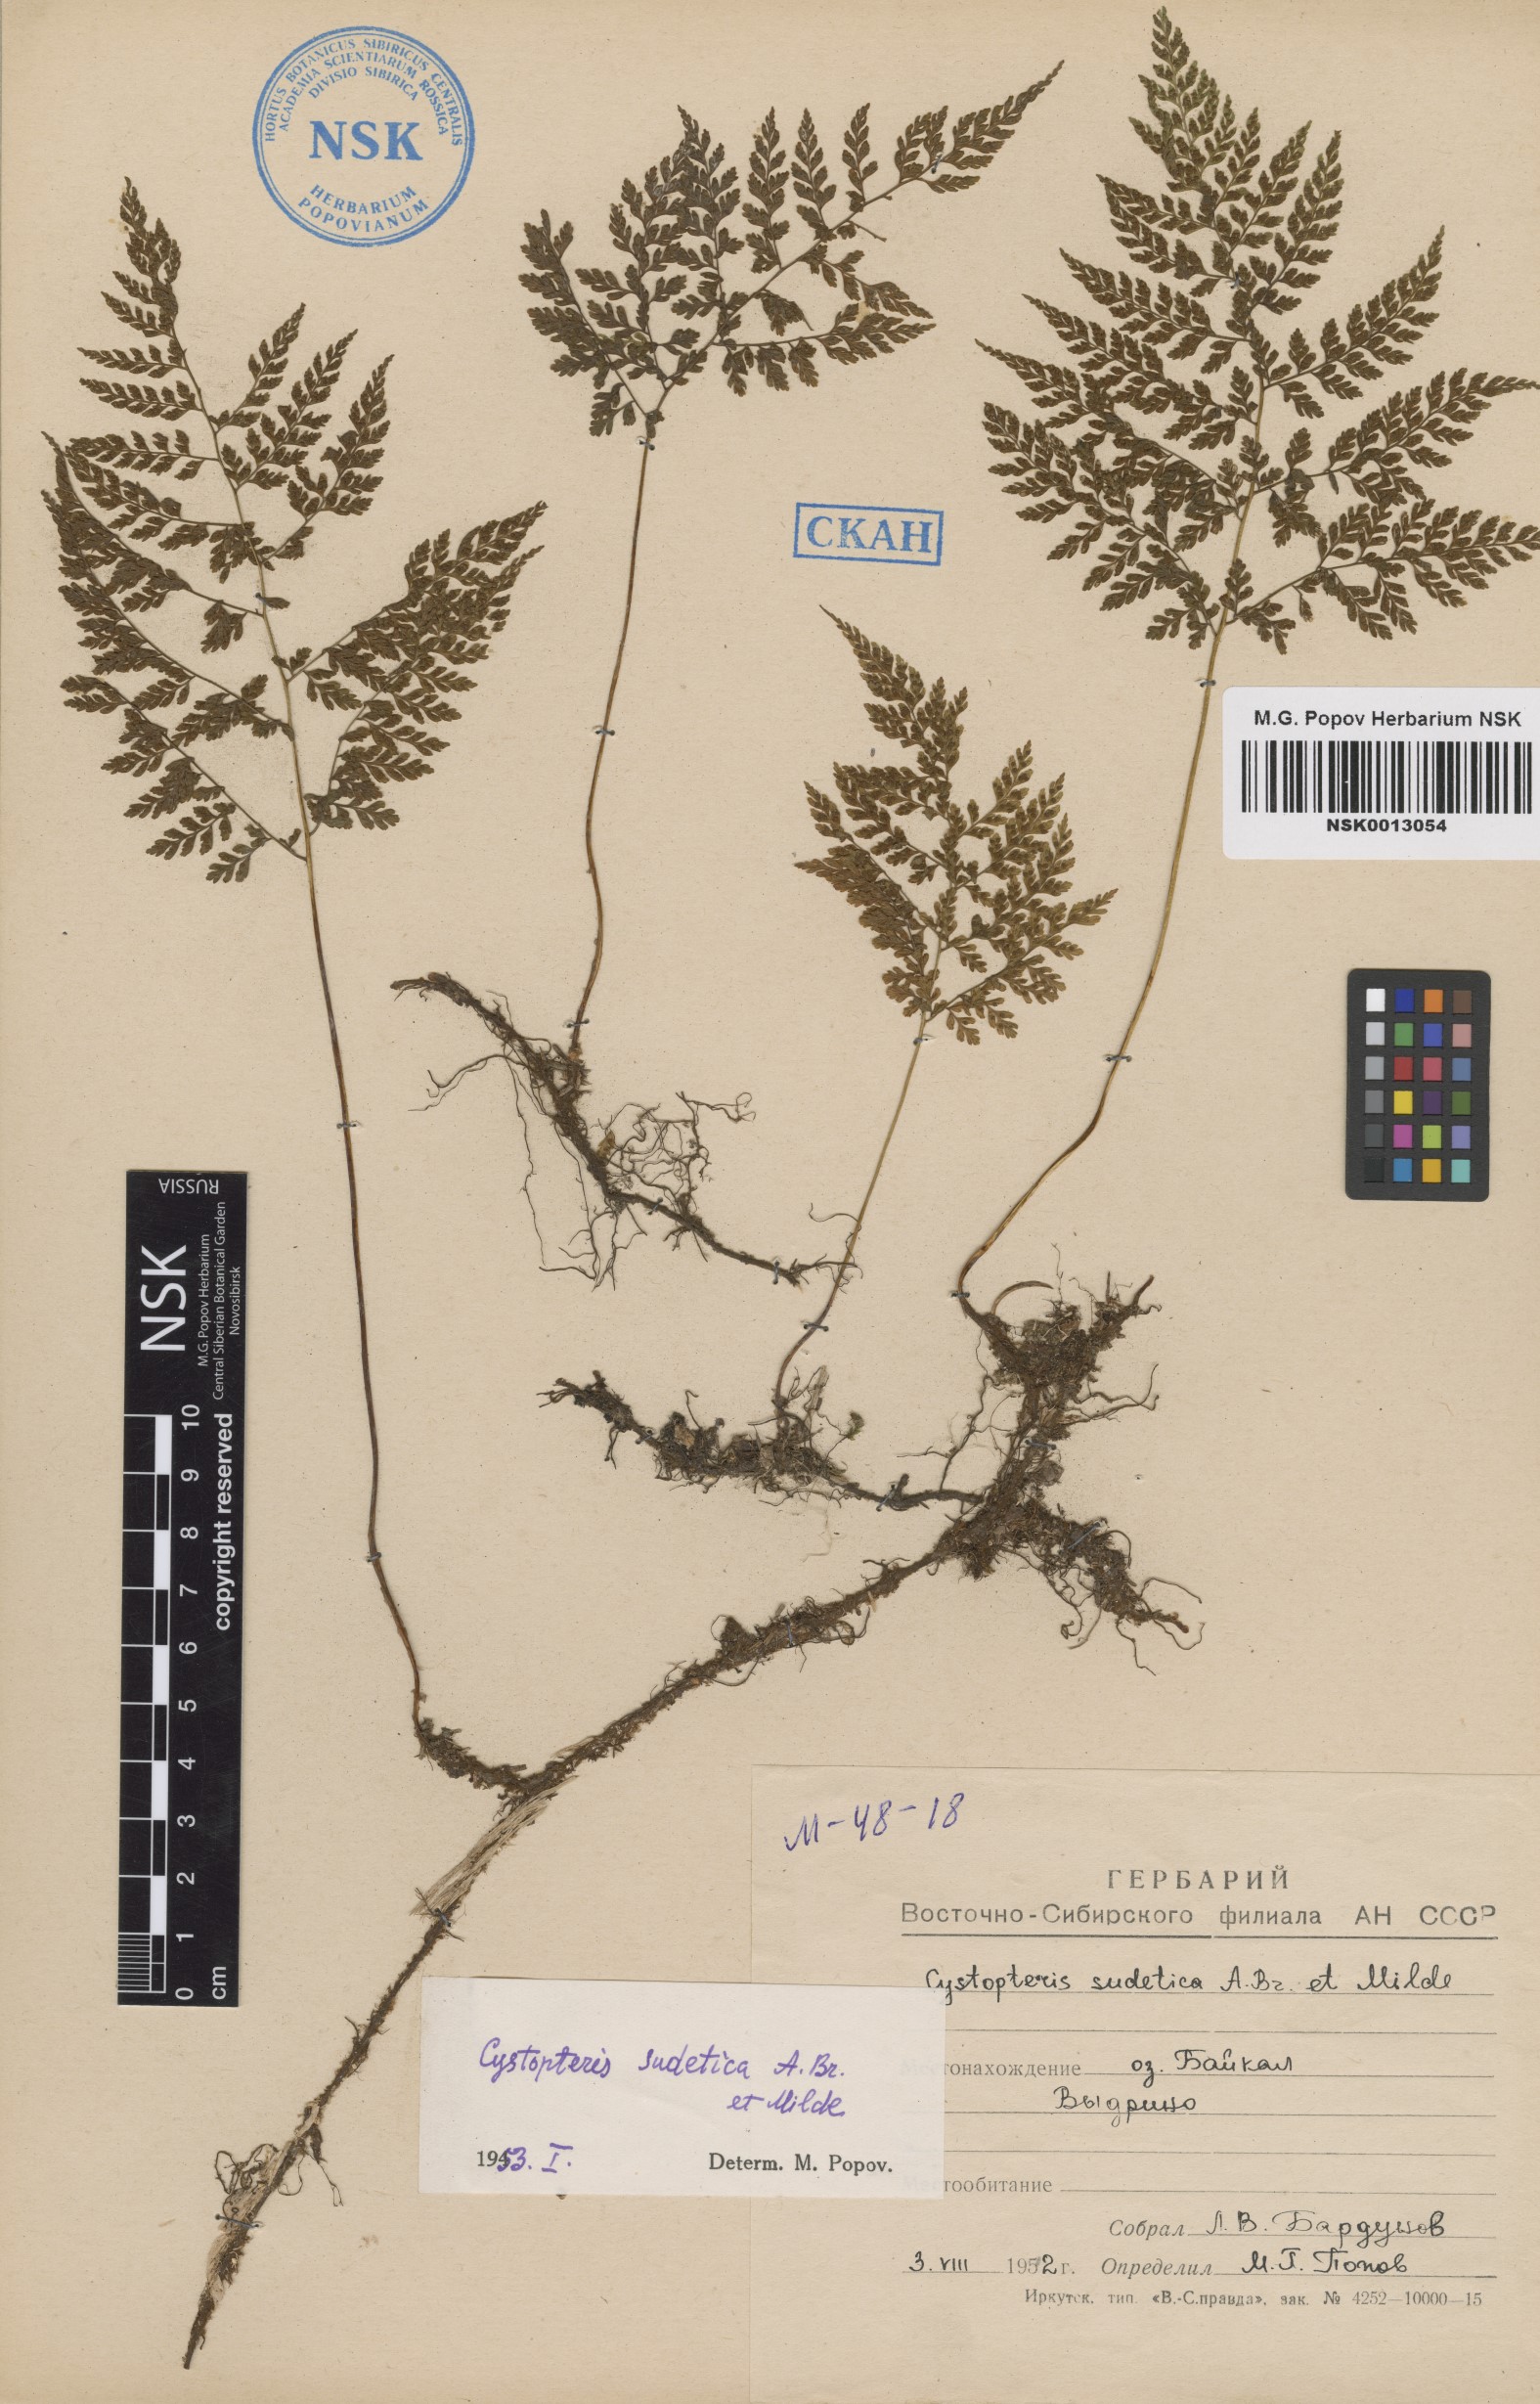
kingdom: Plantae
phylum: Tracheophyta
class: Polypodiopsida
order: Polypodiales
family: Cystopteridaceae
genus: Cystopteris
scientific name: Cystopteris sudetica
